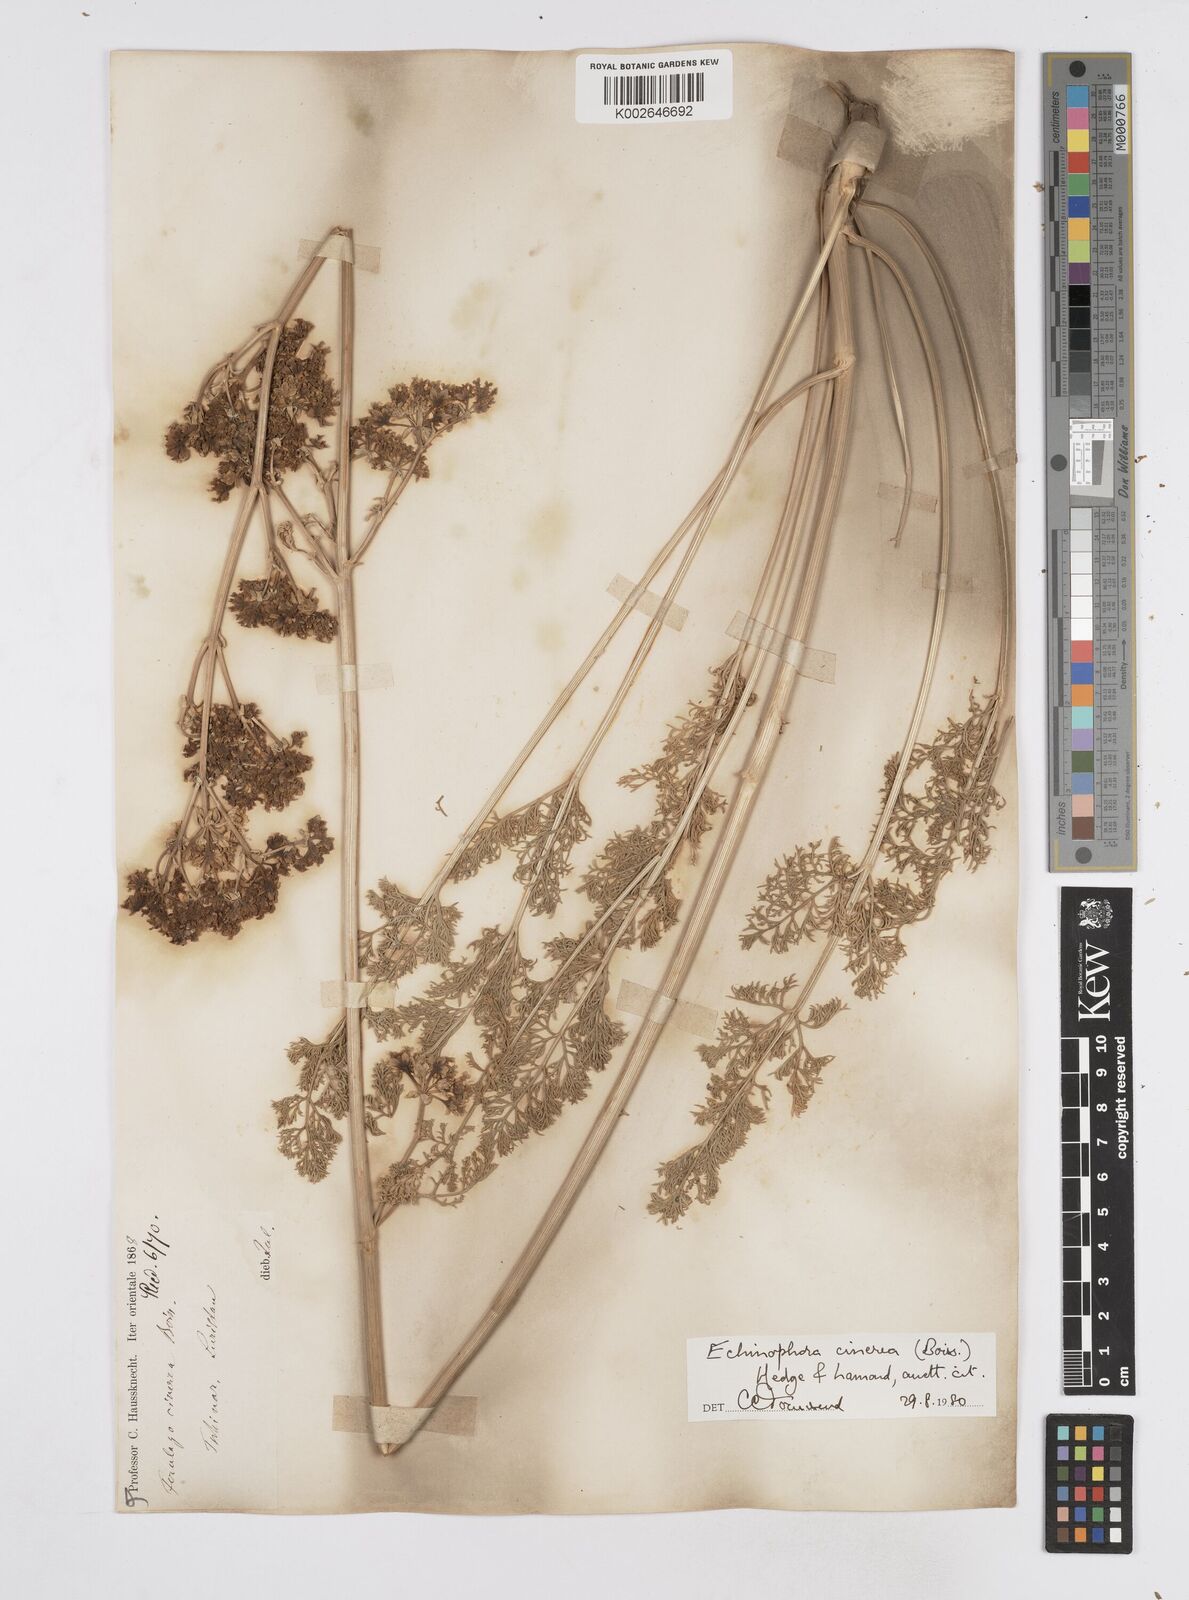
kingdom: Plantae
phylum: Tracheophyta
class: Magnoliopsida
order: Apiales
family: Apiaceae
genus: Thecocarpus
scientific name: Thecocarpus carvifolius
